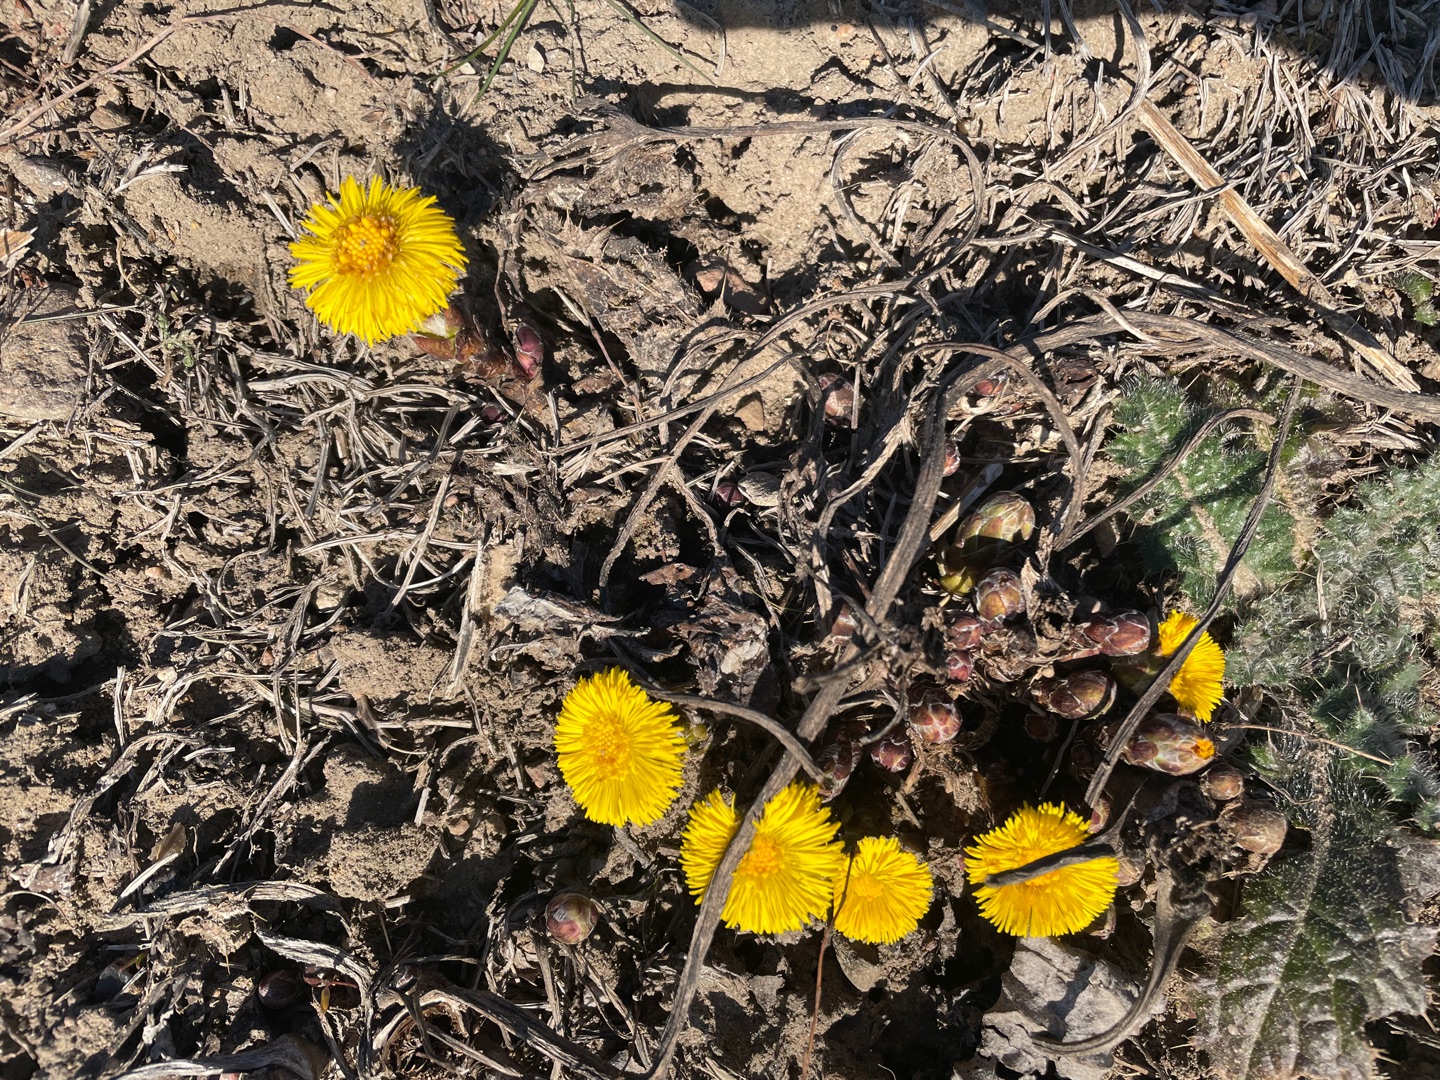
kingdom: Plantae
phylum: Tracheophyta
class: Magnoliopsida
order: Asterales
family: Asteraceae
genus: Tussilago
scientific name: Tussilago farfara
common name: Følfod
